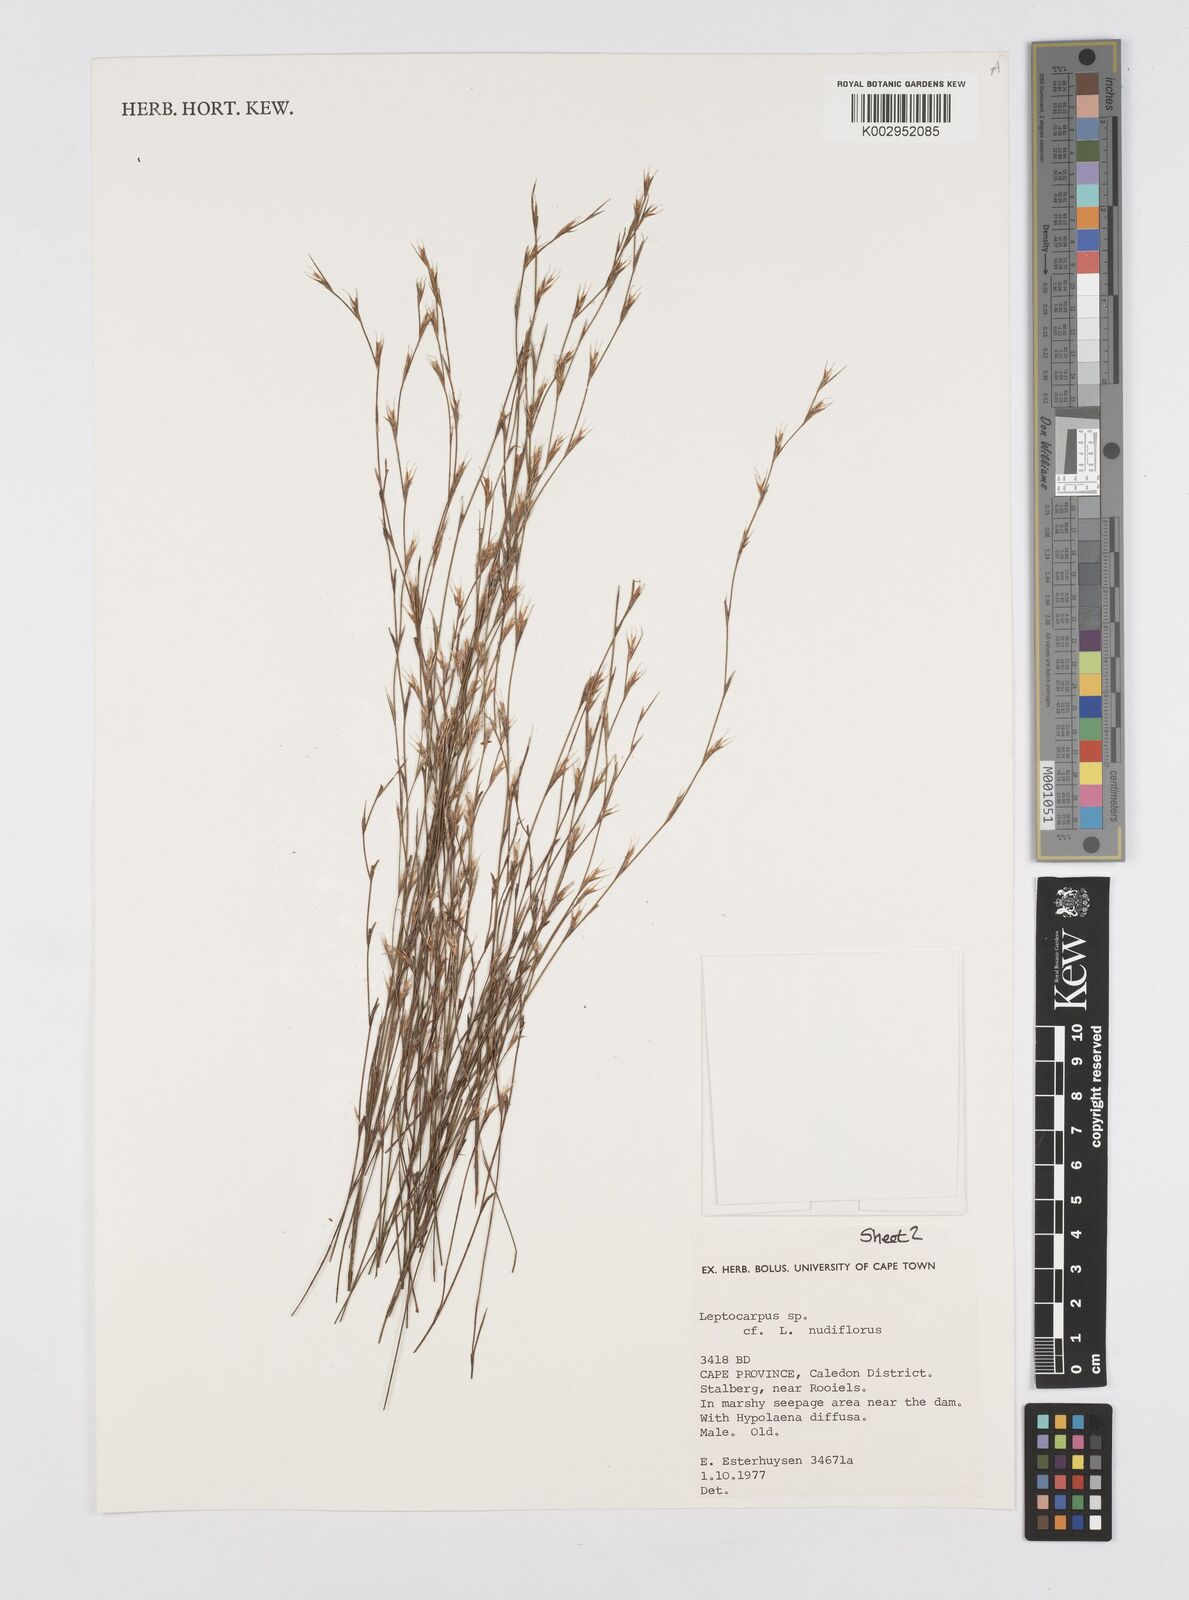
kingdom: Plantae
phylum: Tracheophyta
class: Liliopsida
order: Poales
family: Restionaceae
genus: Restio
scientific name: Restio nudiflorus
